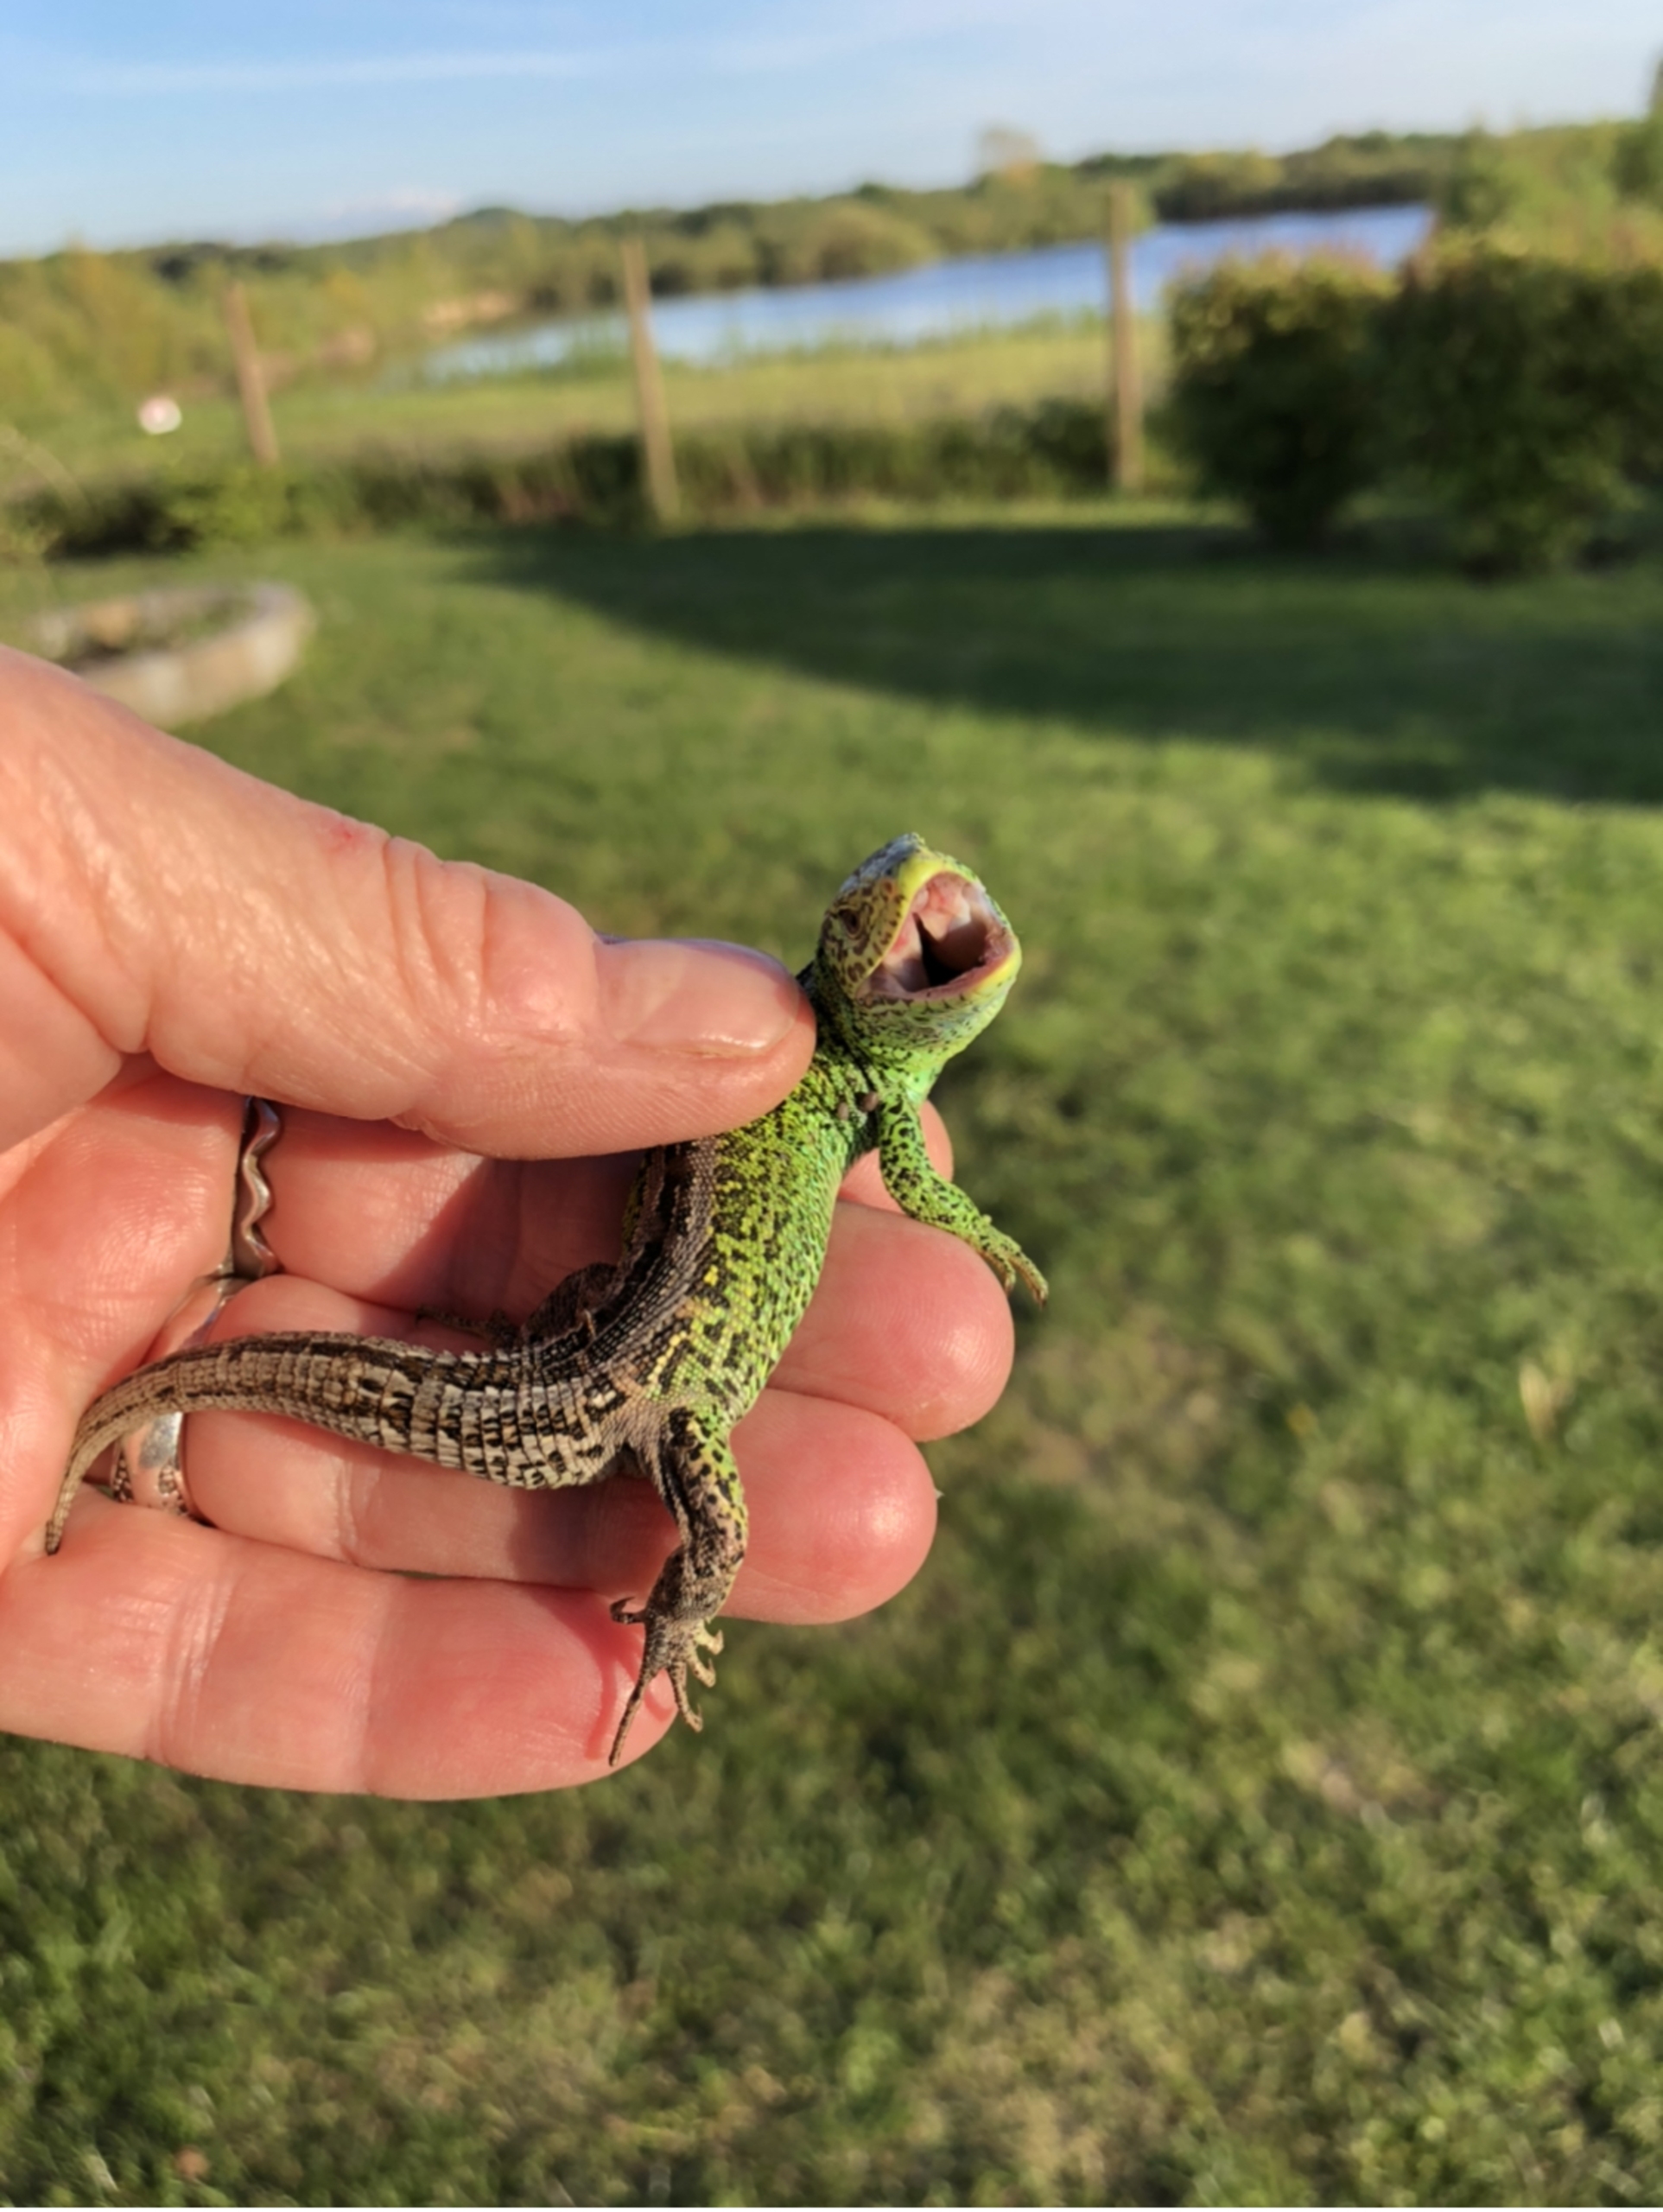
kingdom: Animalia
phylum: Chordata
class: Squamata
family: Lacertidae
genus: Lacerta
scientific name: Lacerta agilis
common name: Markfirben
